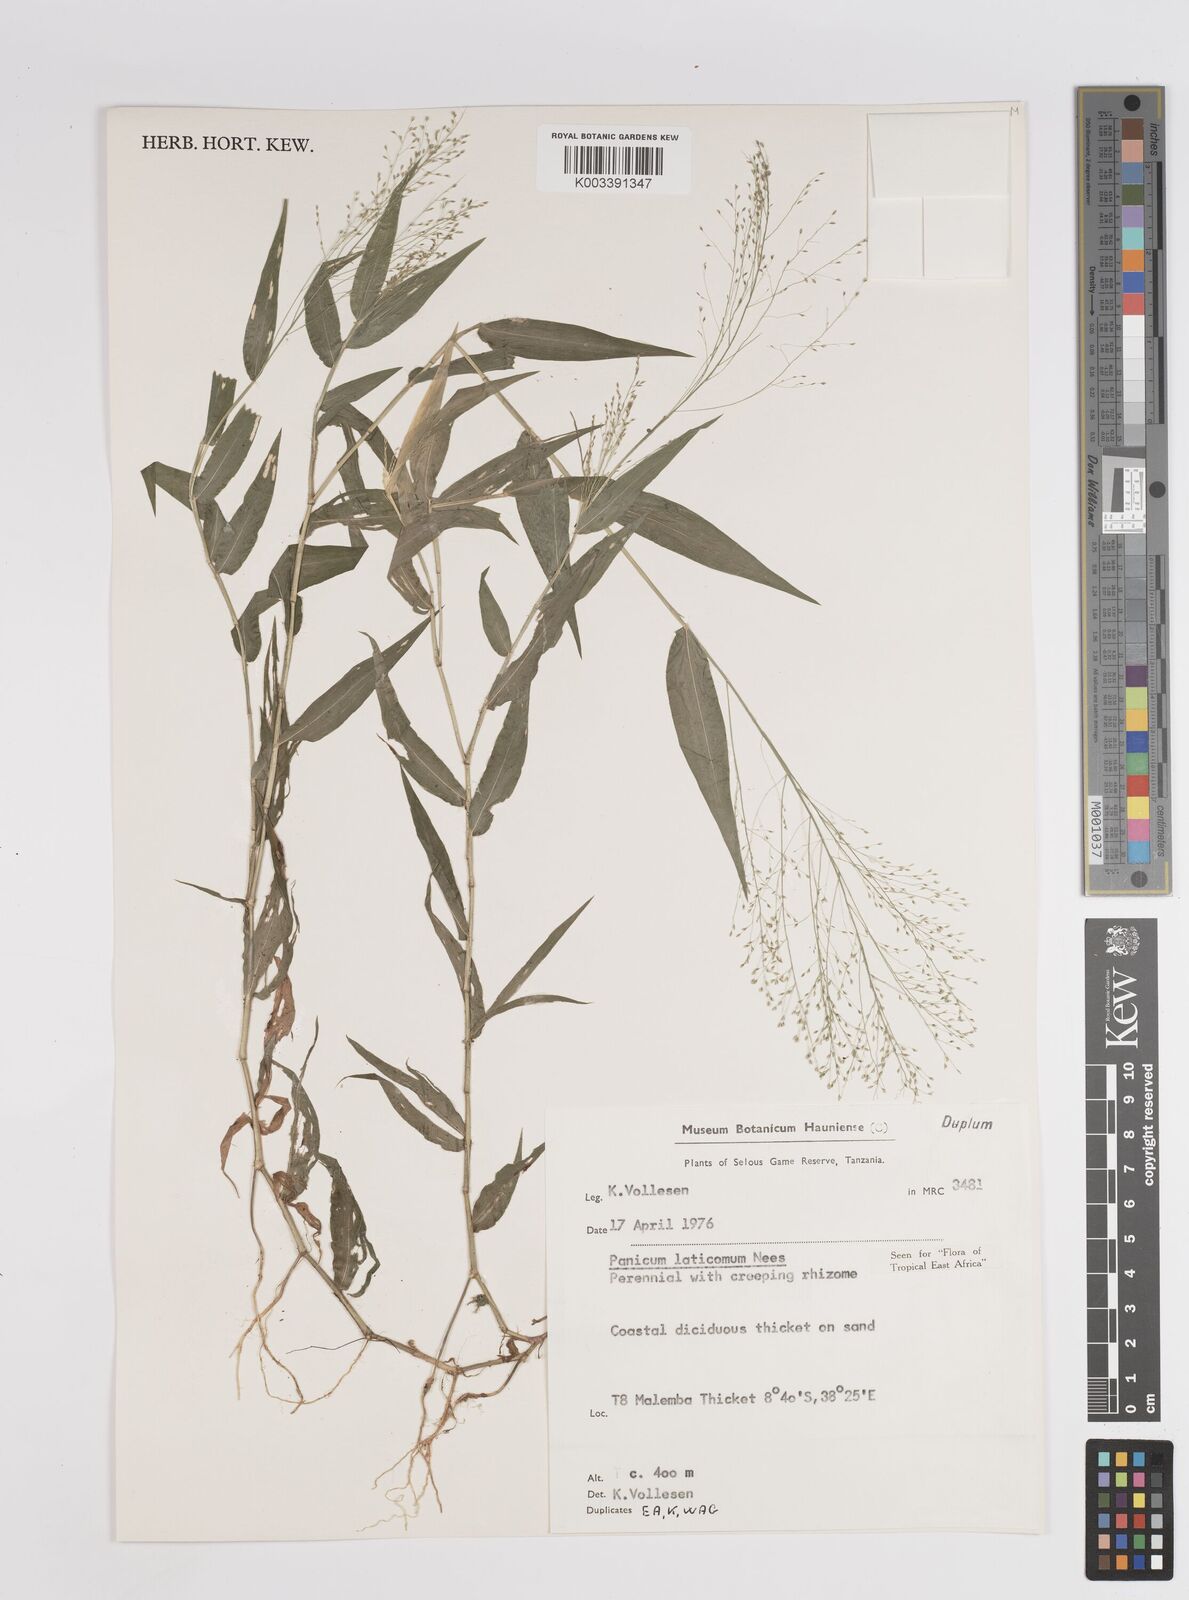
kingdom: Plantae
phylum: Tracheophyta
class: Liliopsida
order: Poales
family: Poaceae
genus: Panicum
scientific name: Panicum laticomum
